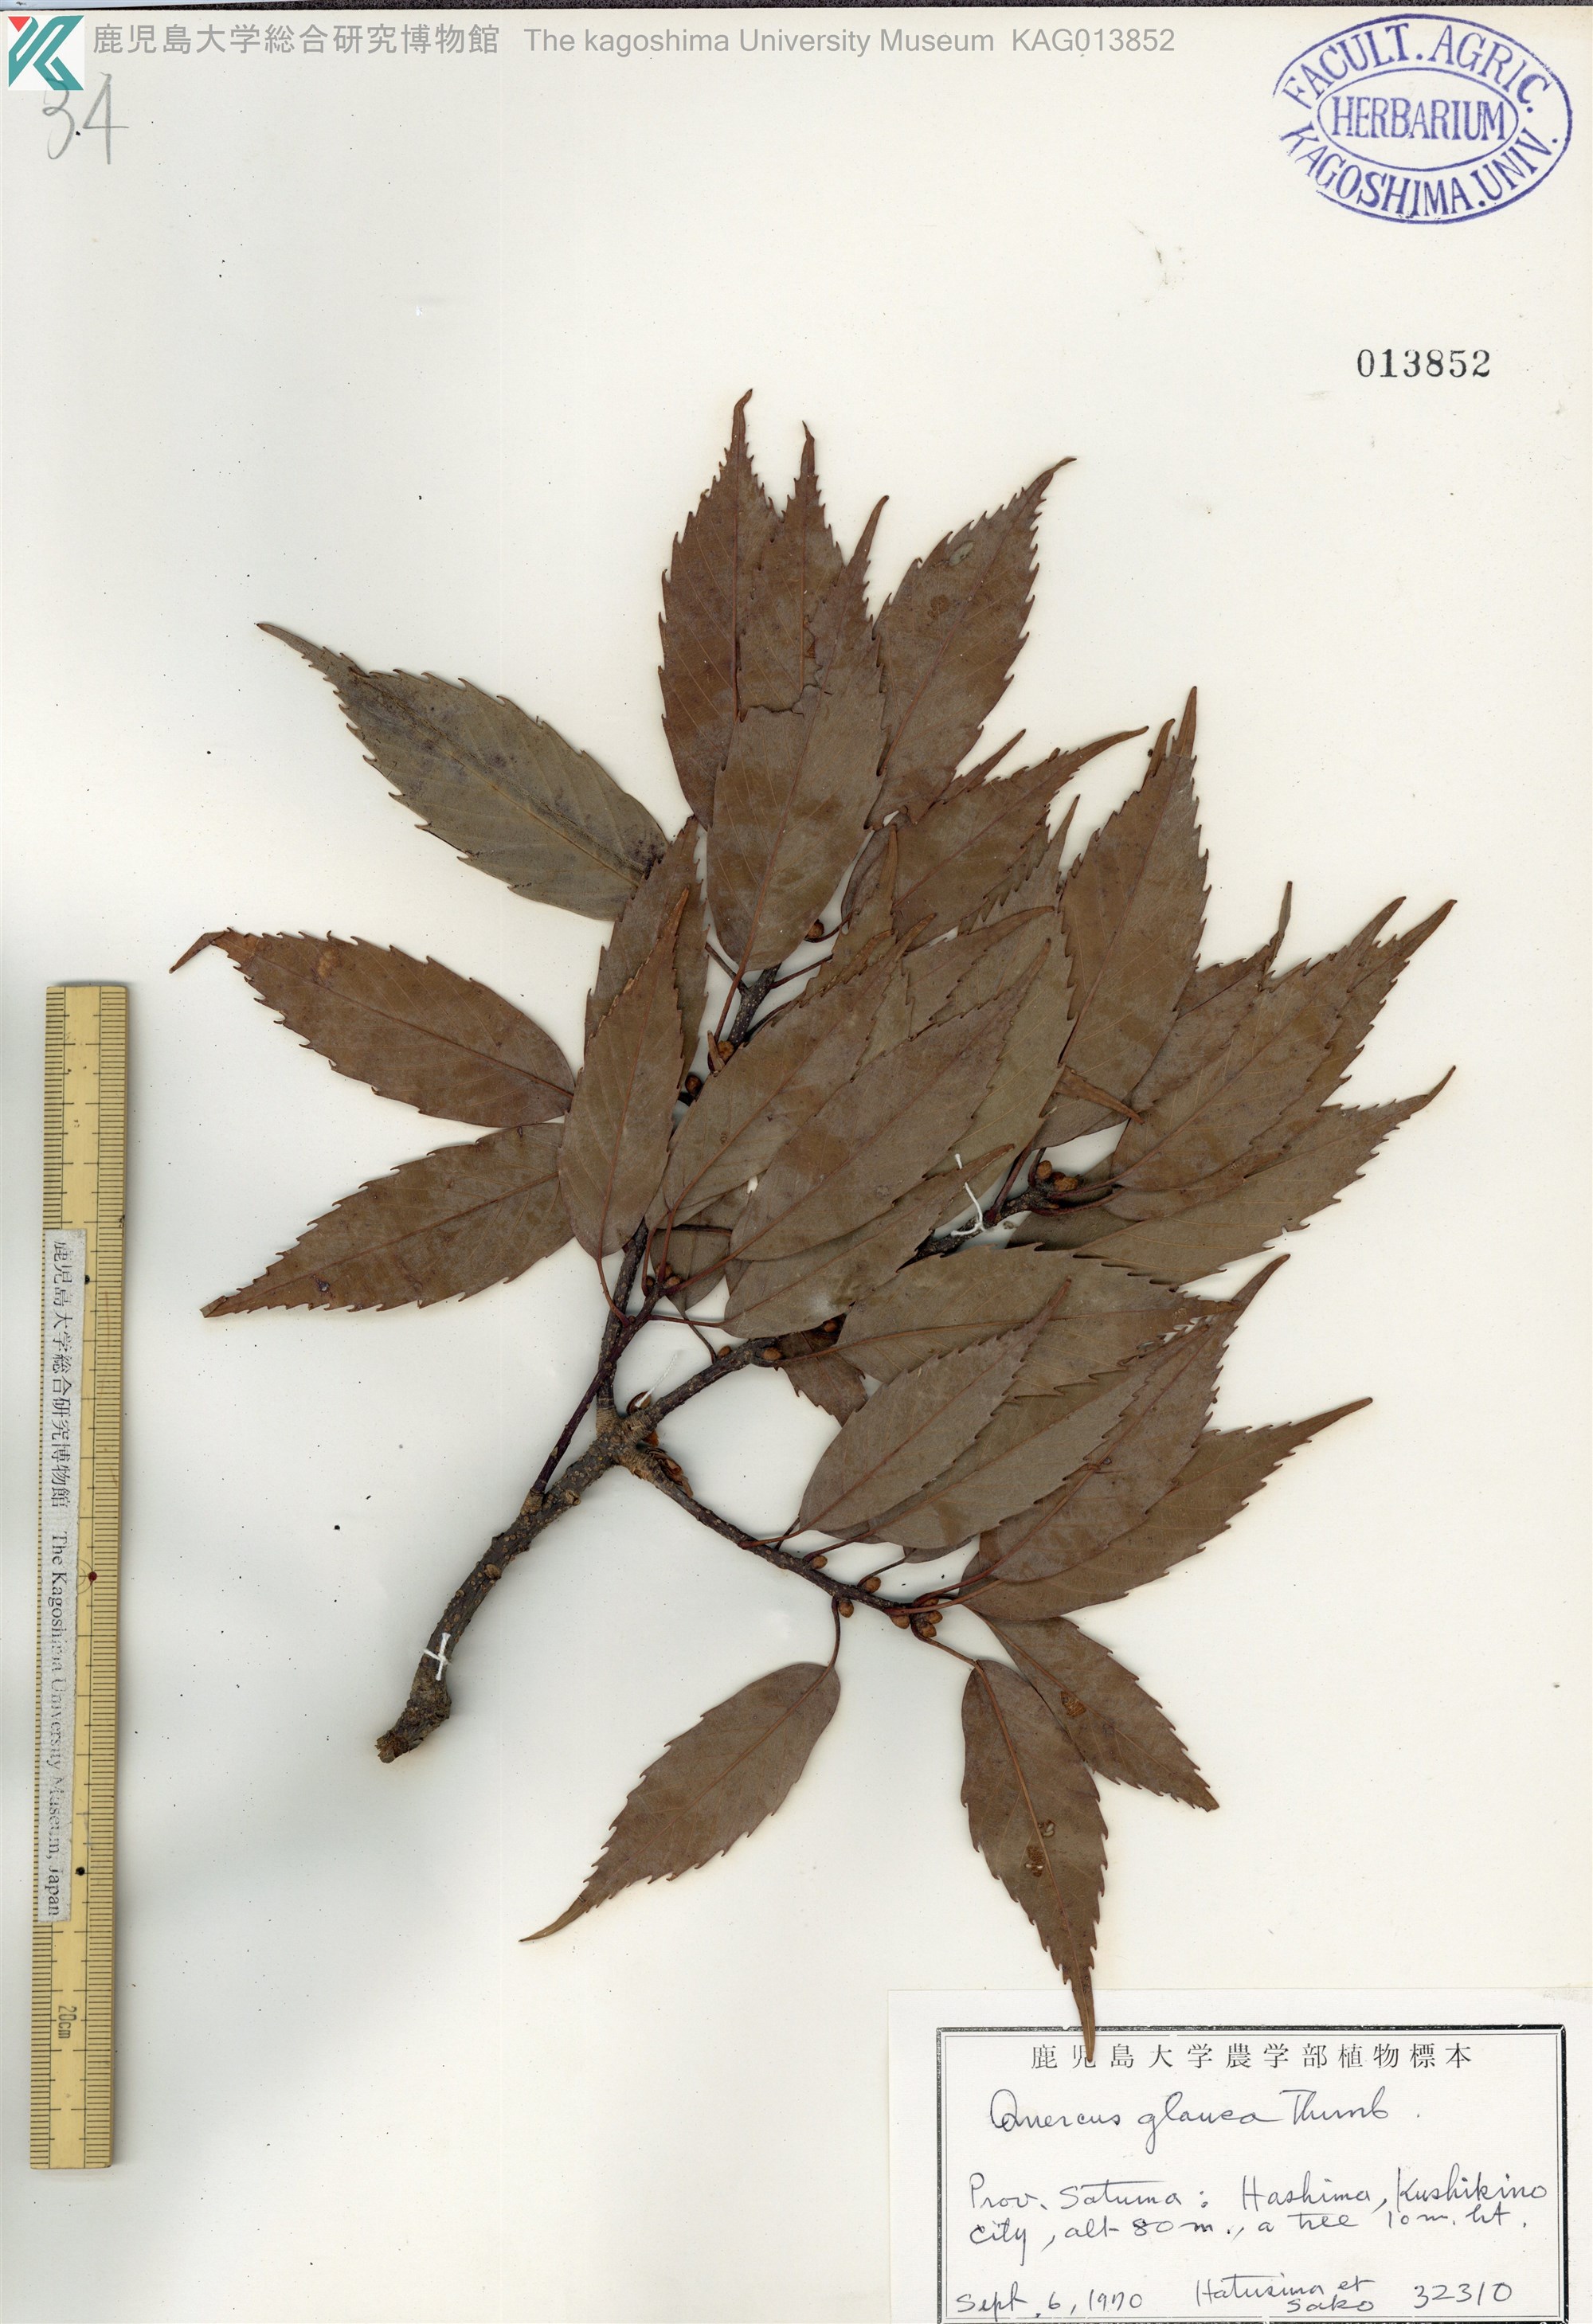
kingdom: Plantae
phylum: Tracheophyta
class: Magnoliopsida
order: Fagales
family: Fagaceae
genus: Quercus
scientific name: Quercus glauca
